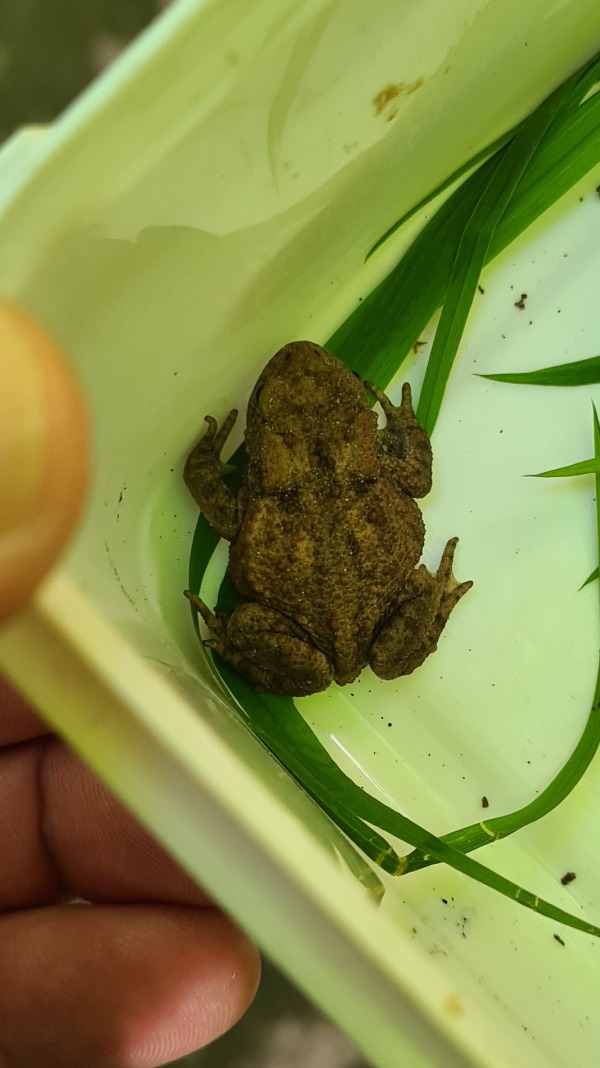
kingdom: Animalia
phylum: Chordata
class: Amphibia
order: Anura
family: Bufonidae
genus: Bufo
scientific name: Bufo bufo
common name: Skrubtudse
